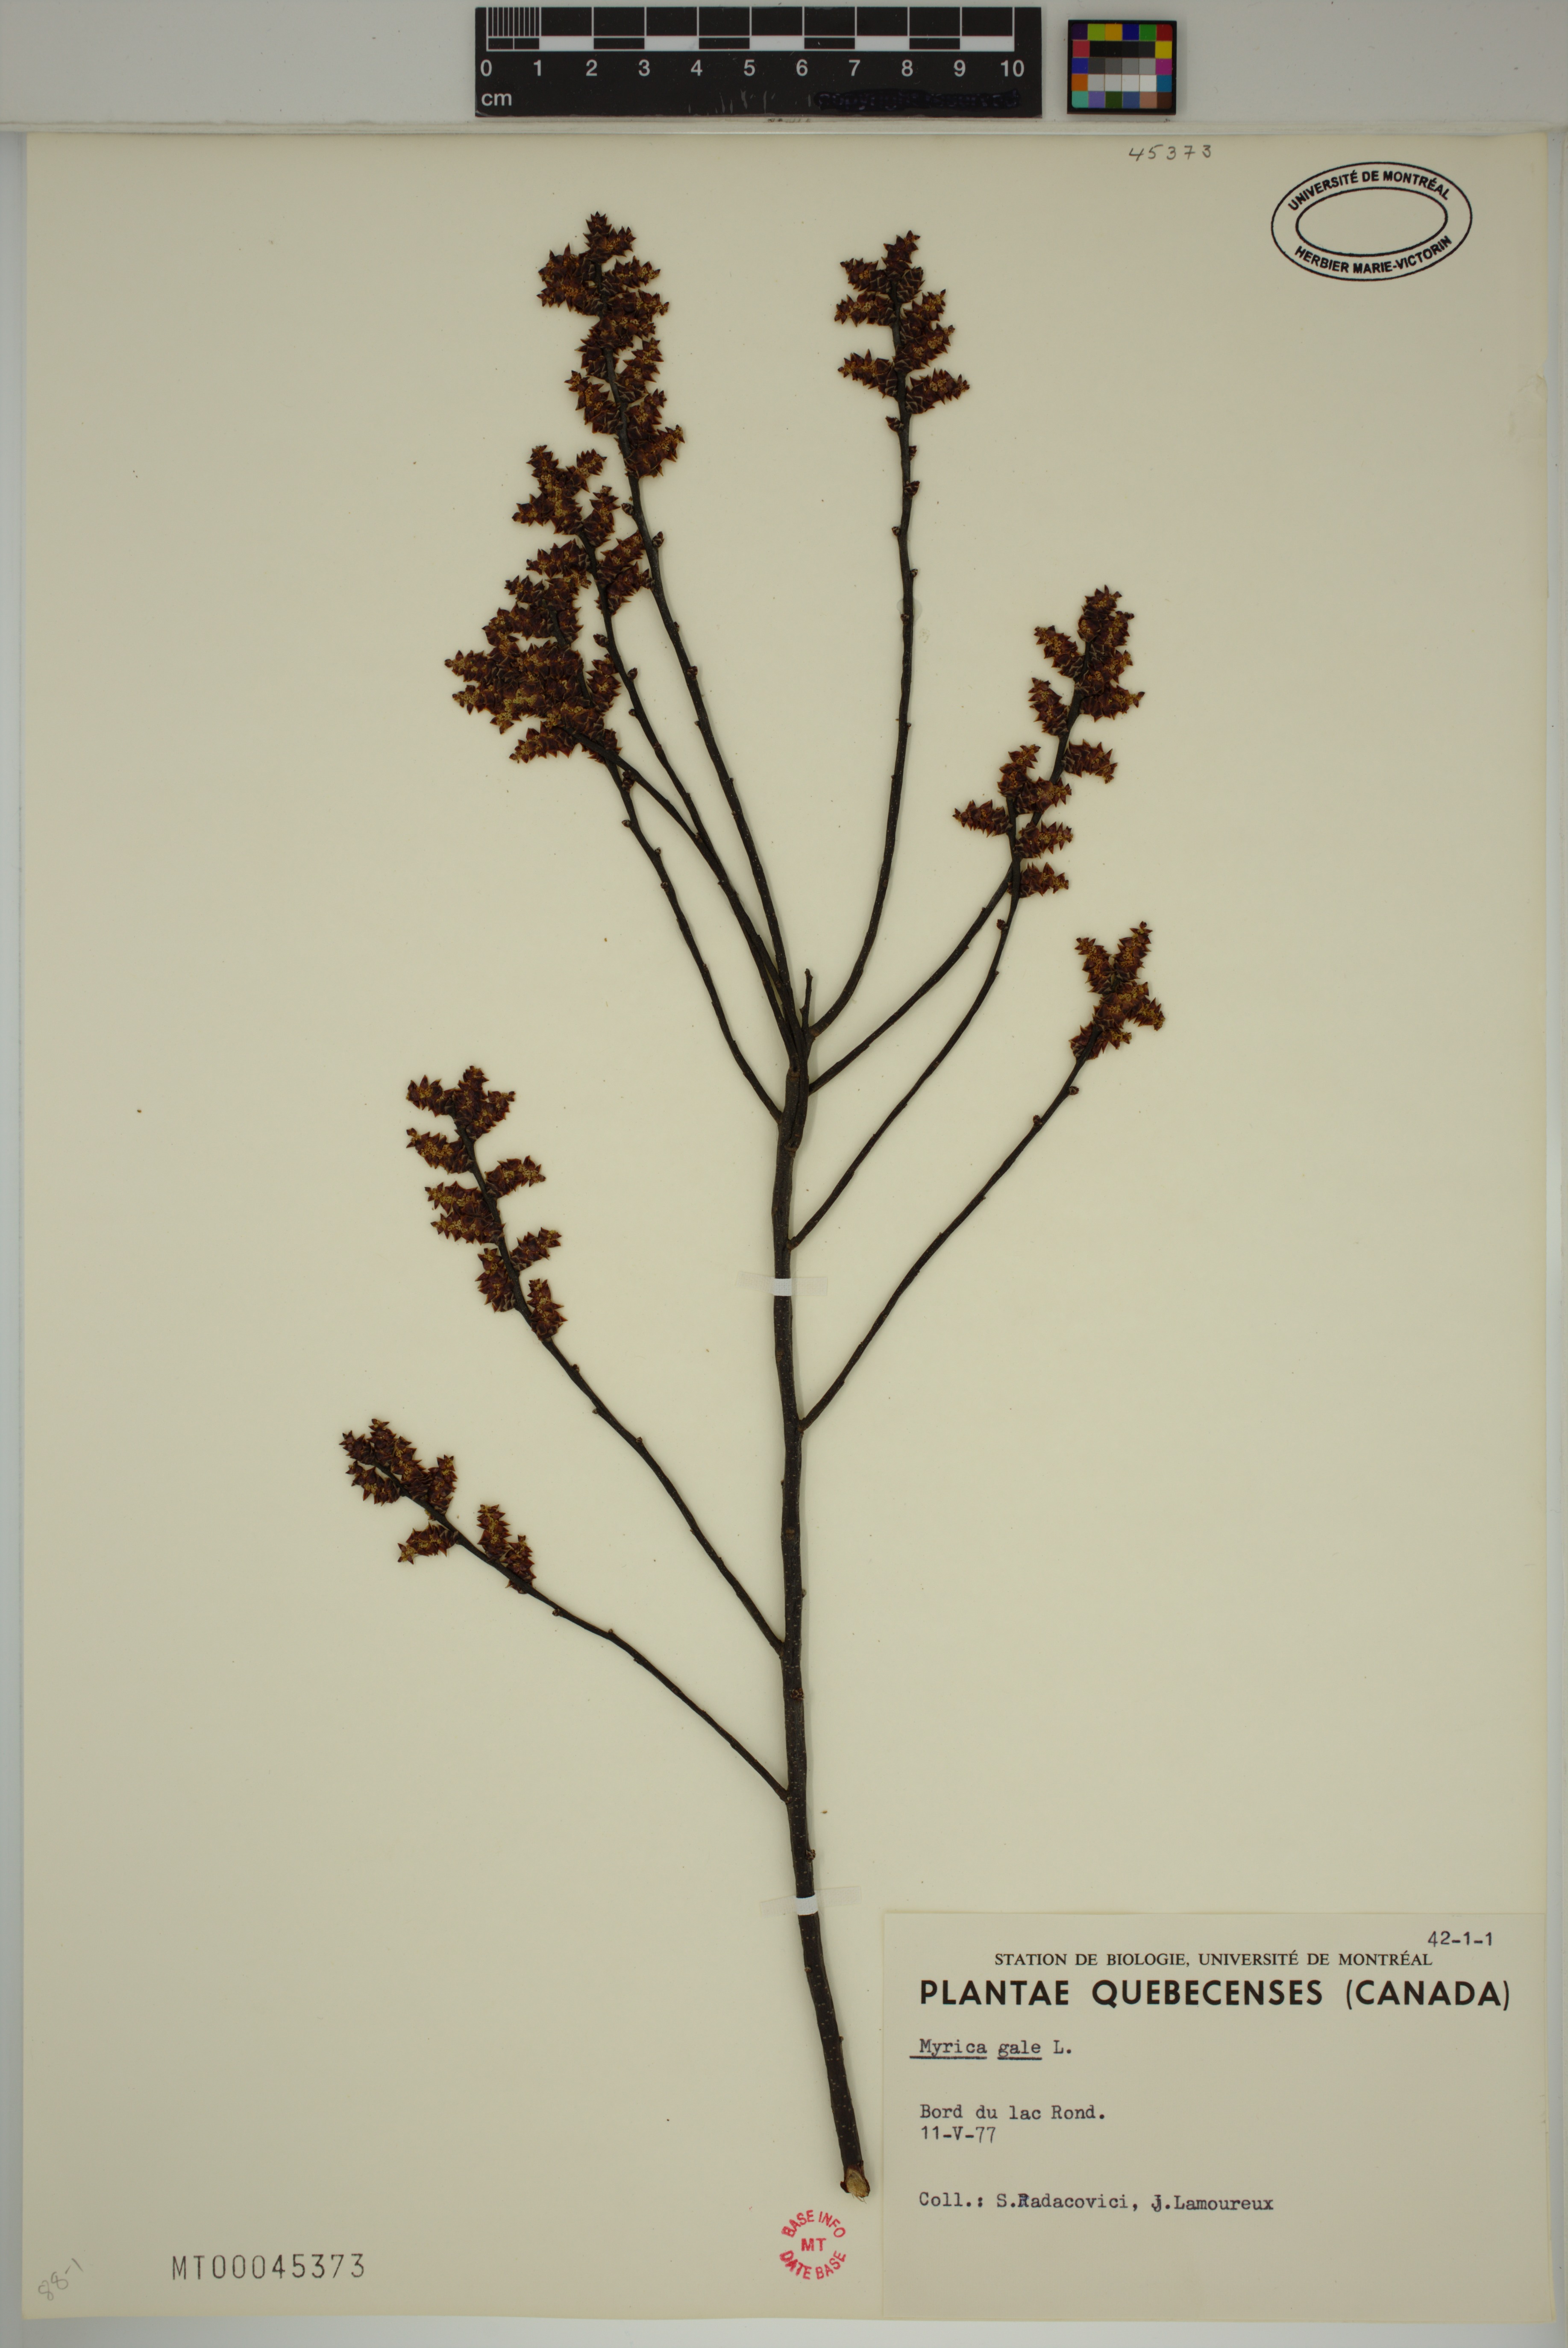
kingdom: Plantae
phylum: Tracheophyta
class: Magnoliopsida
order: Fagales
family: Myricaceae
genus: Myrica
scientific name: Myrica gale
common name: Sweet gale
